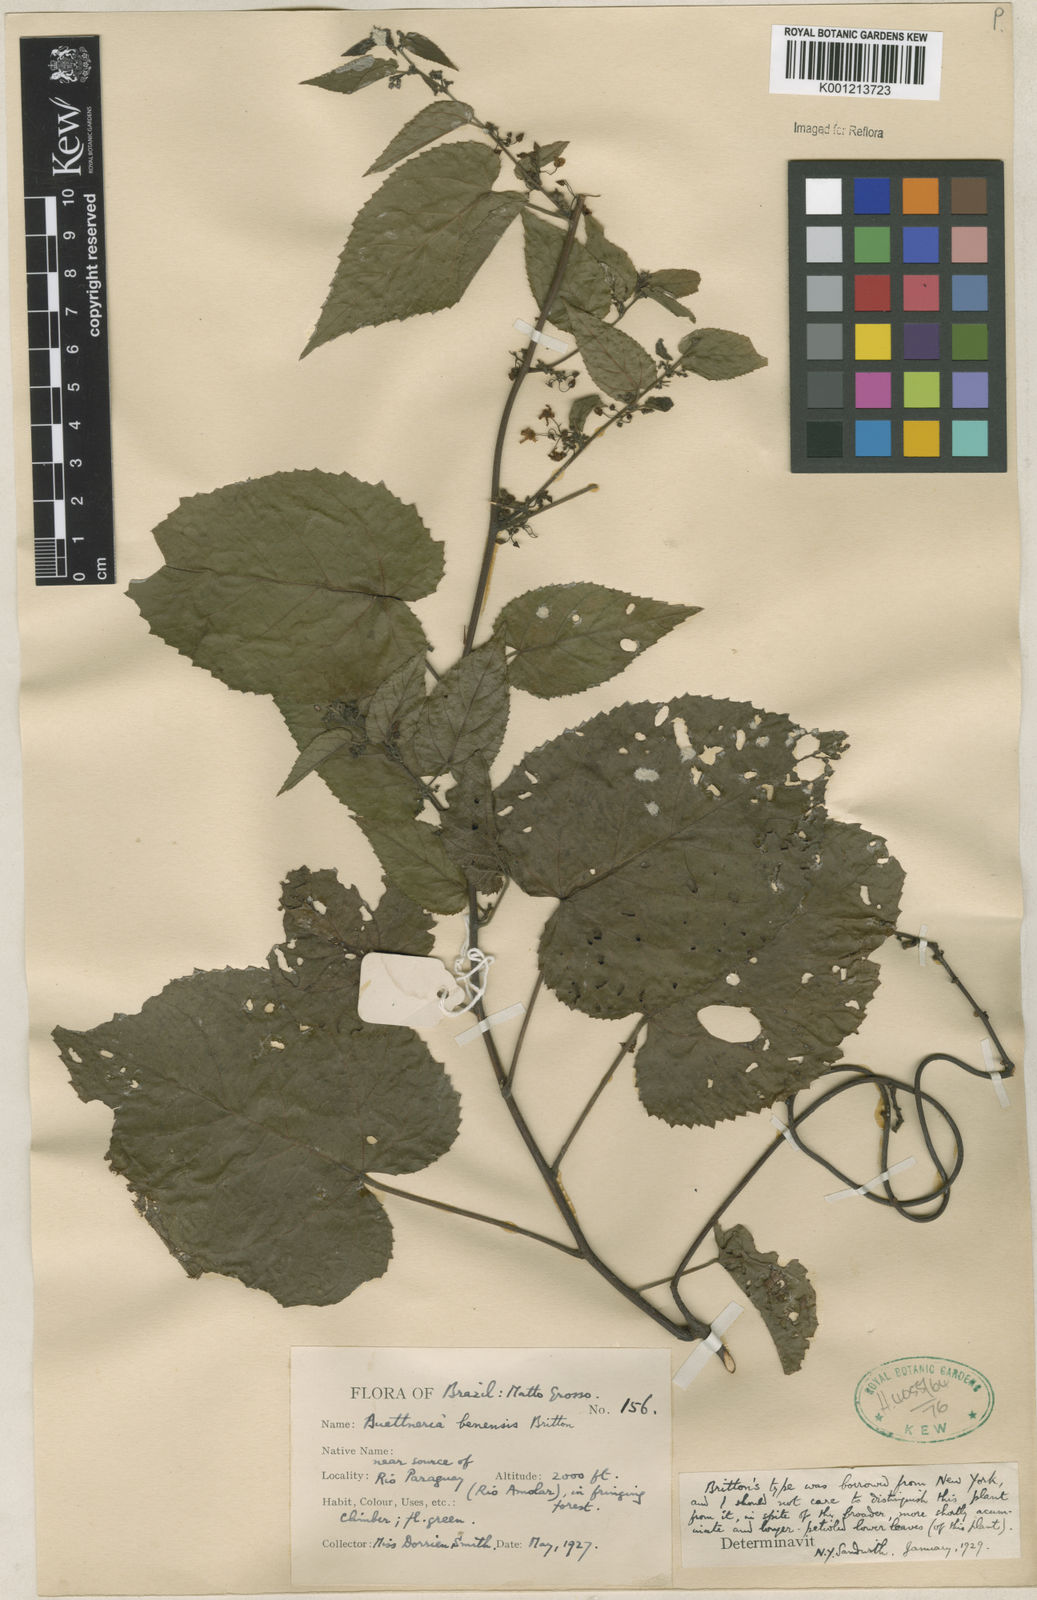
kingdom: Plantae
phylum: Tracheophyta
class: Magnoliopsida
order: Malvales
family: Malvaceae
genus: Byttneria
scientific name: Byttneria benensis
